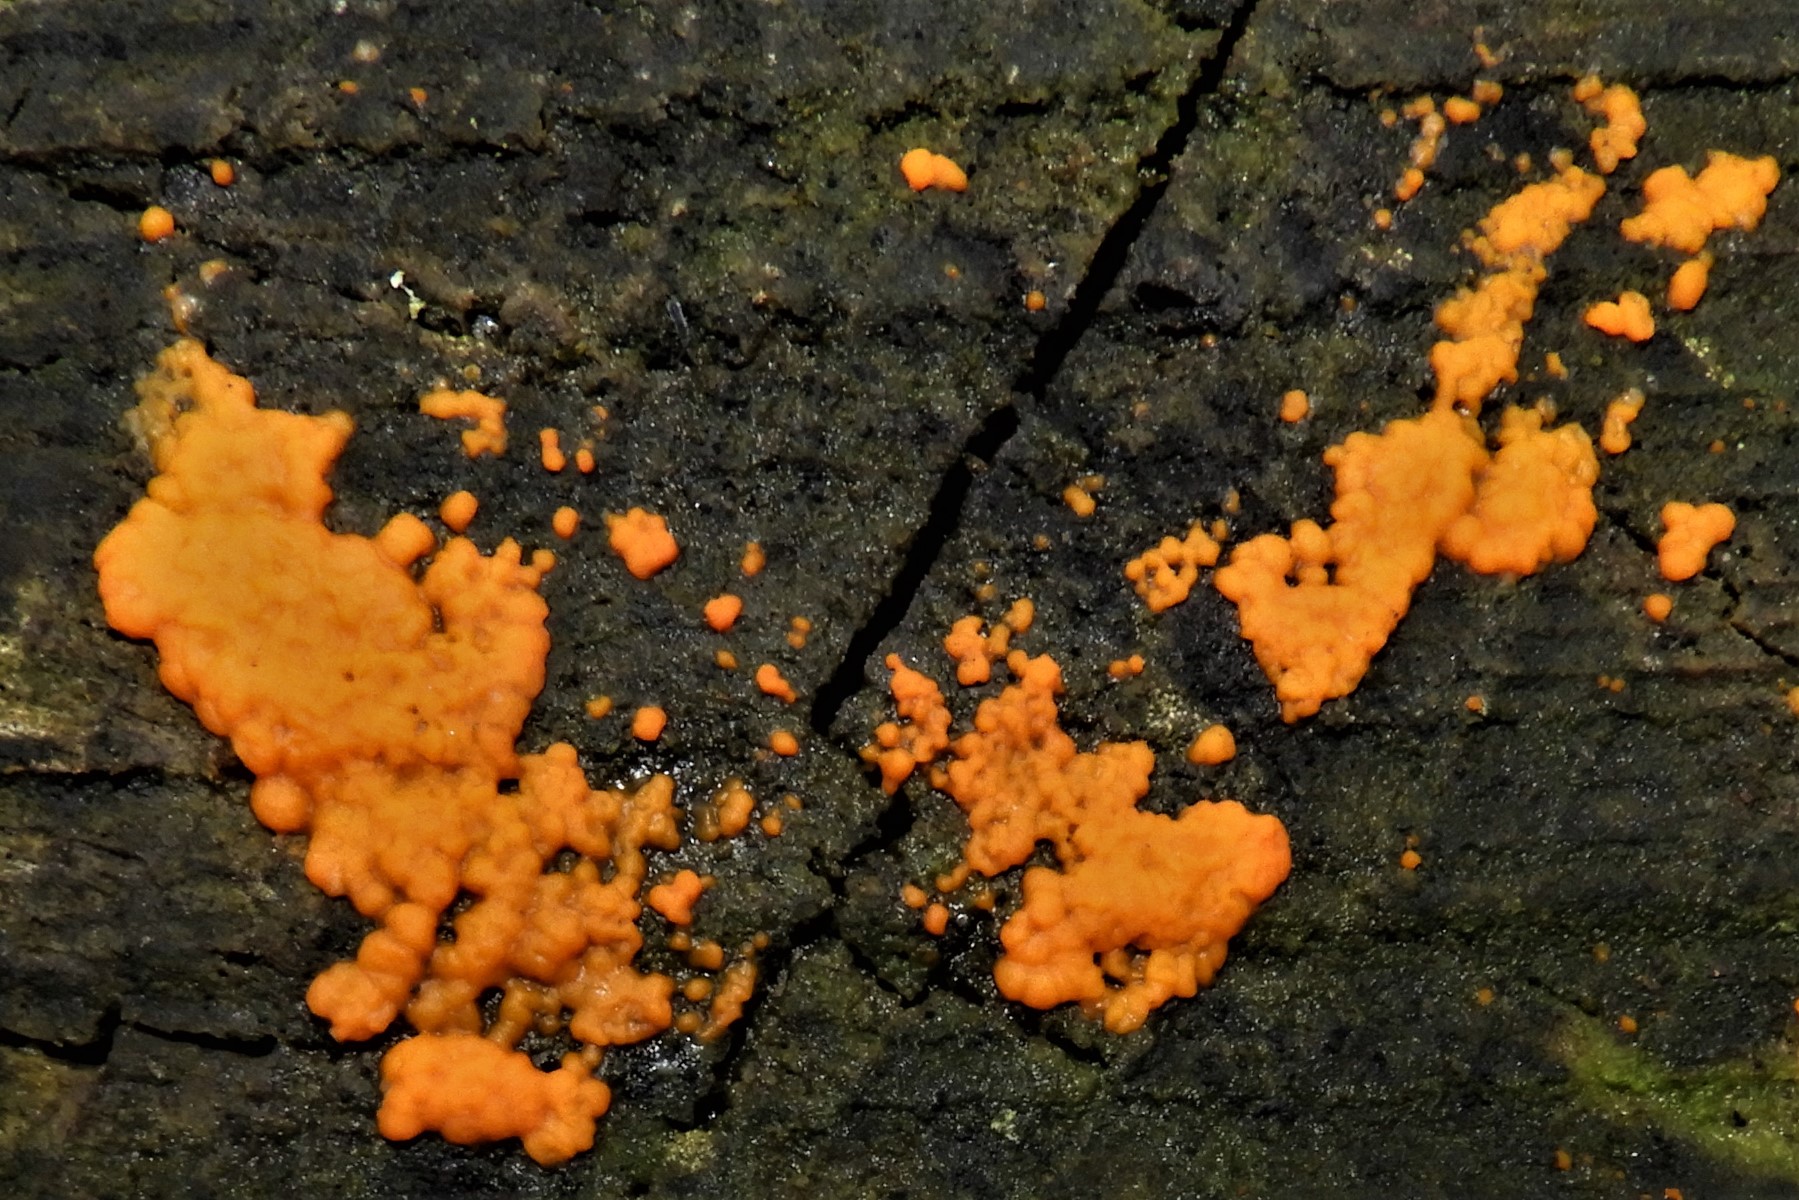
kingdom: Fungi
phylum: Basidiomycota
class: Dacrymycetes
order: Dacrymycetales
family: Dacrymycetaceae
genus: Dacrymyces
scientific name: Dacrymyces stillatus
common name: almindelig tåresvamp
